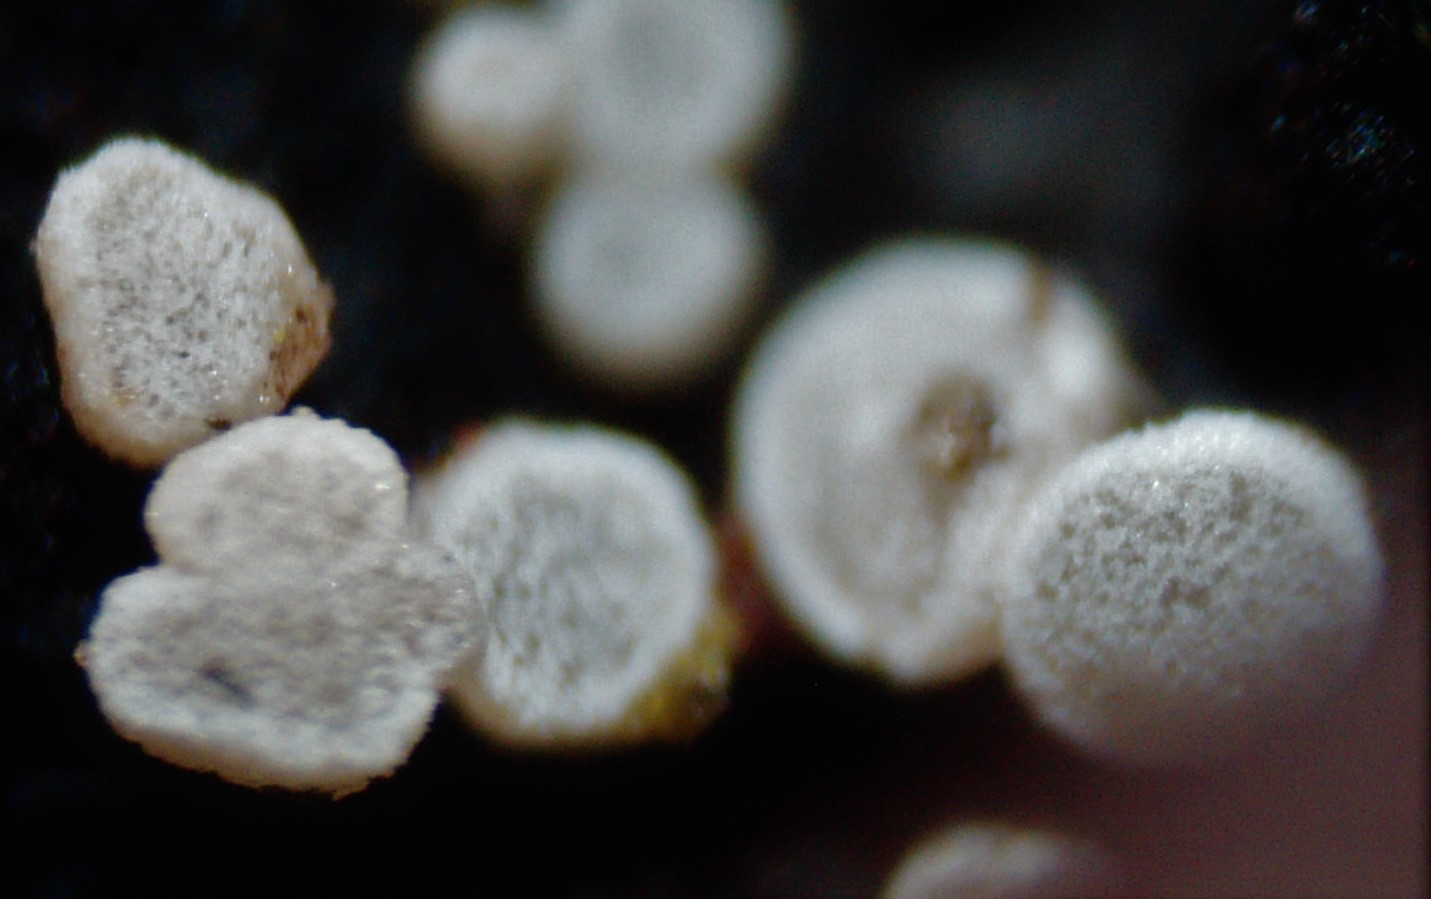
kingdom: Fungi
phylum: Ascomycota
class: Leotiomycetes
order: Helotiales
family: Hyaloscyphaceae
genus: Polydesmia
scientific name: Polydesmia pruinosa
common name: dunskive
